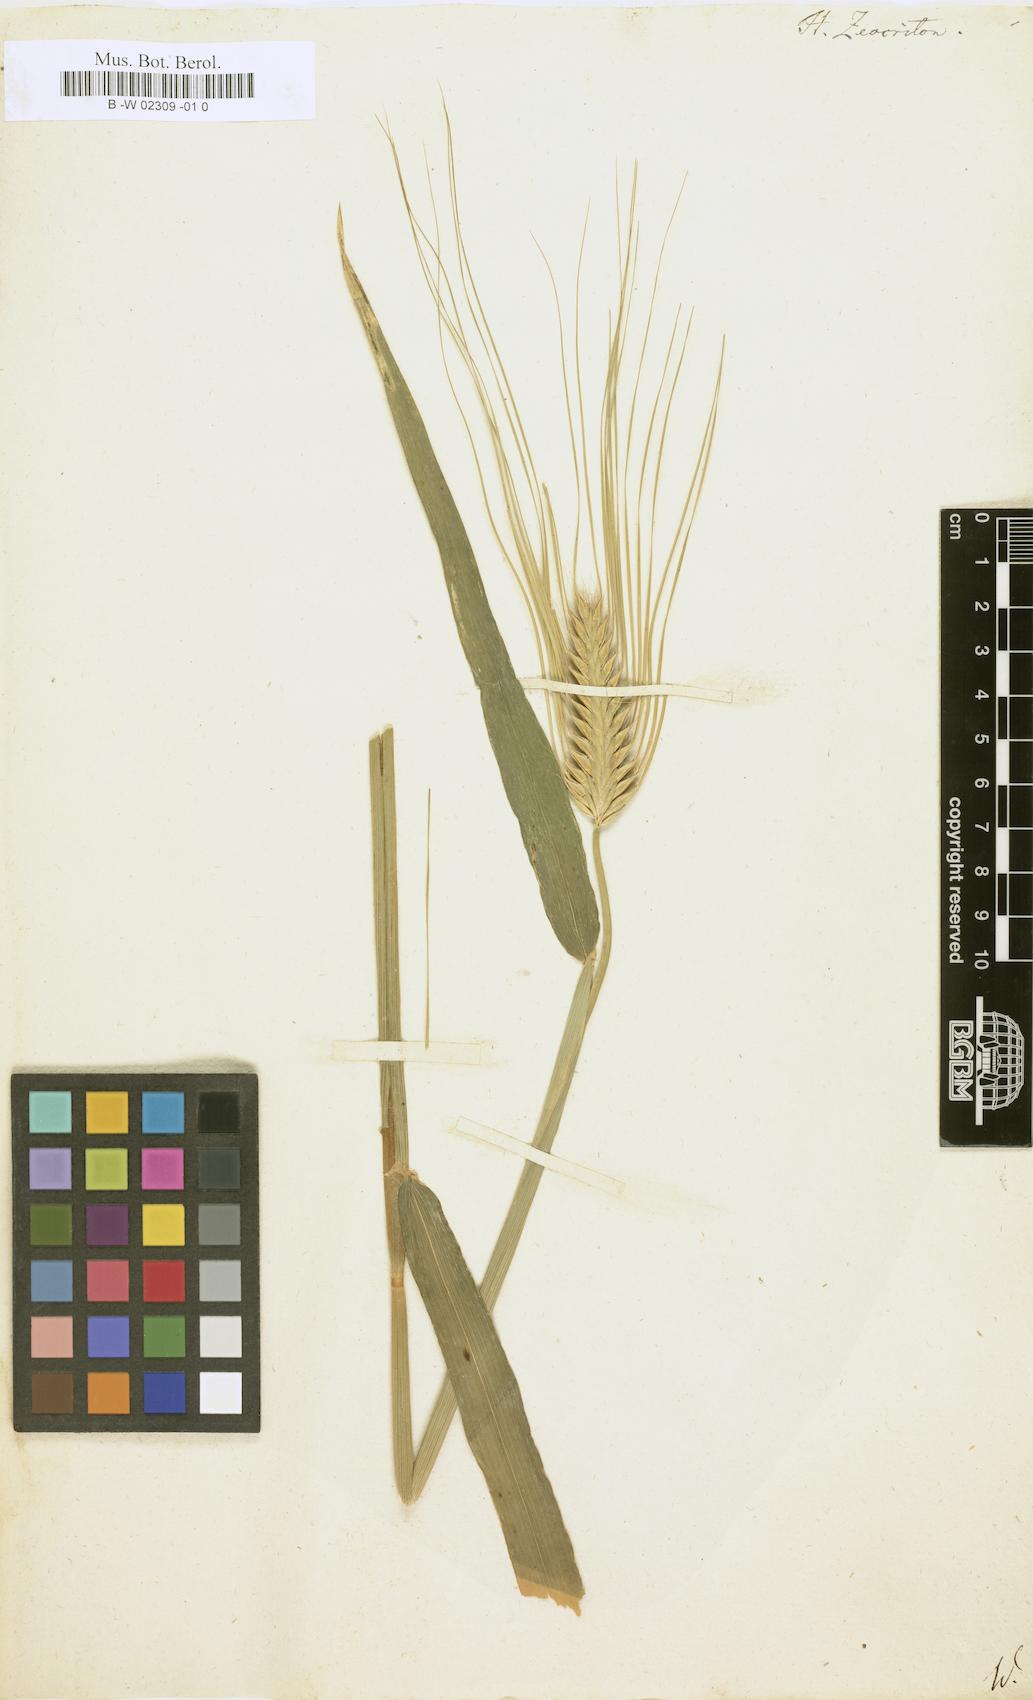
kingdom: Plantae
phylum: Tracheophyta
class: Liliopsida
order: Poales
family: Poaceae
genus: Hordeum
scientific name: Hordeum distichon
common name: Two-rowed barley
